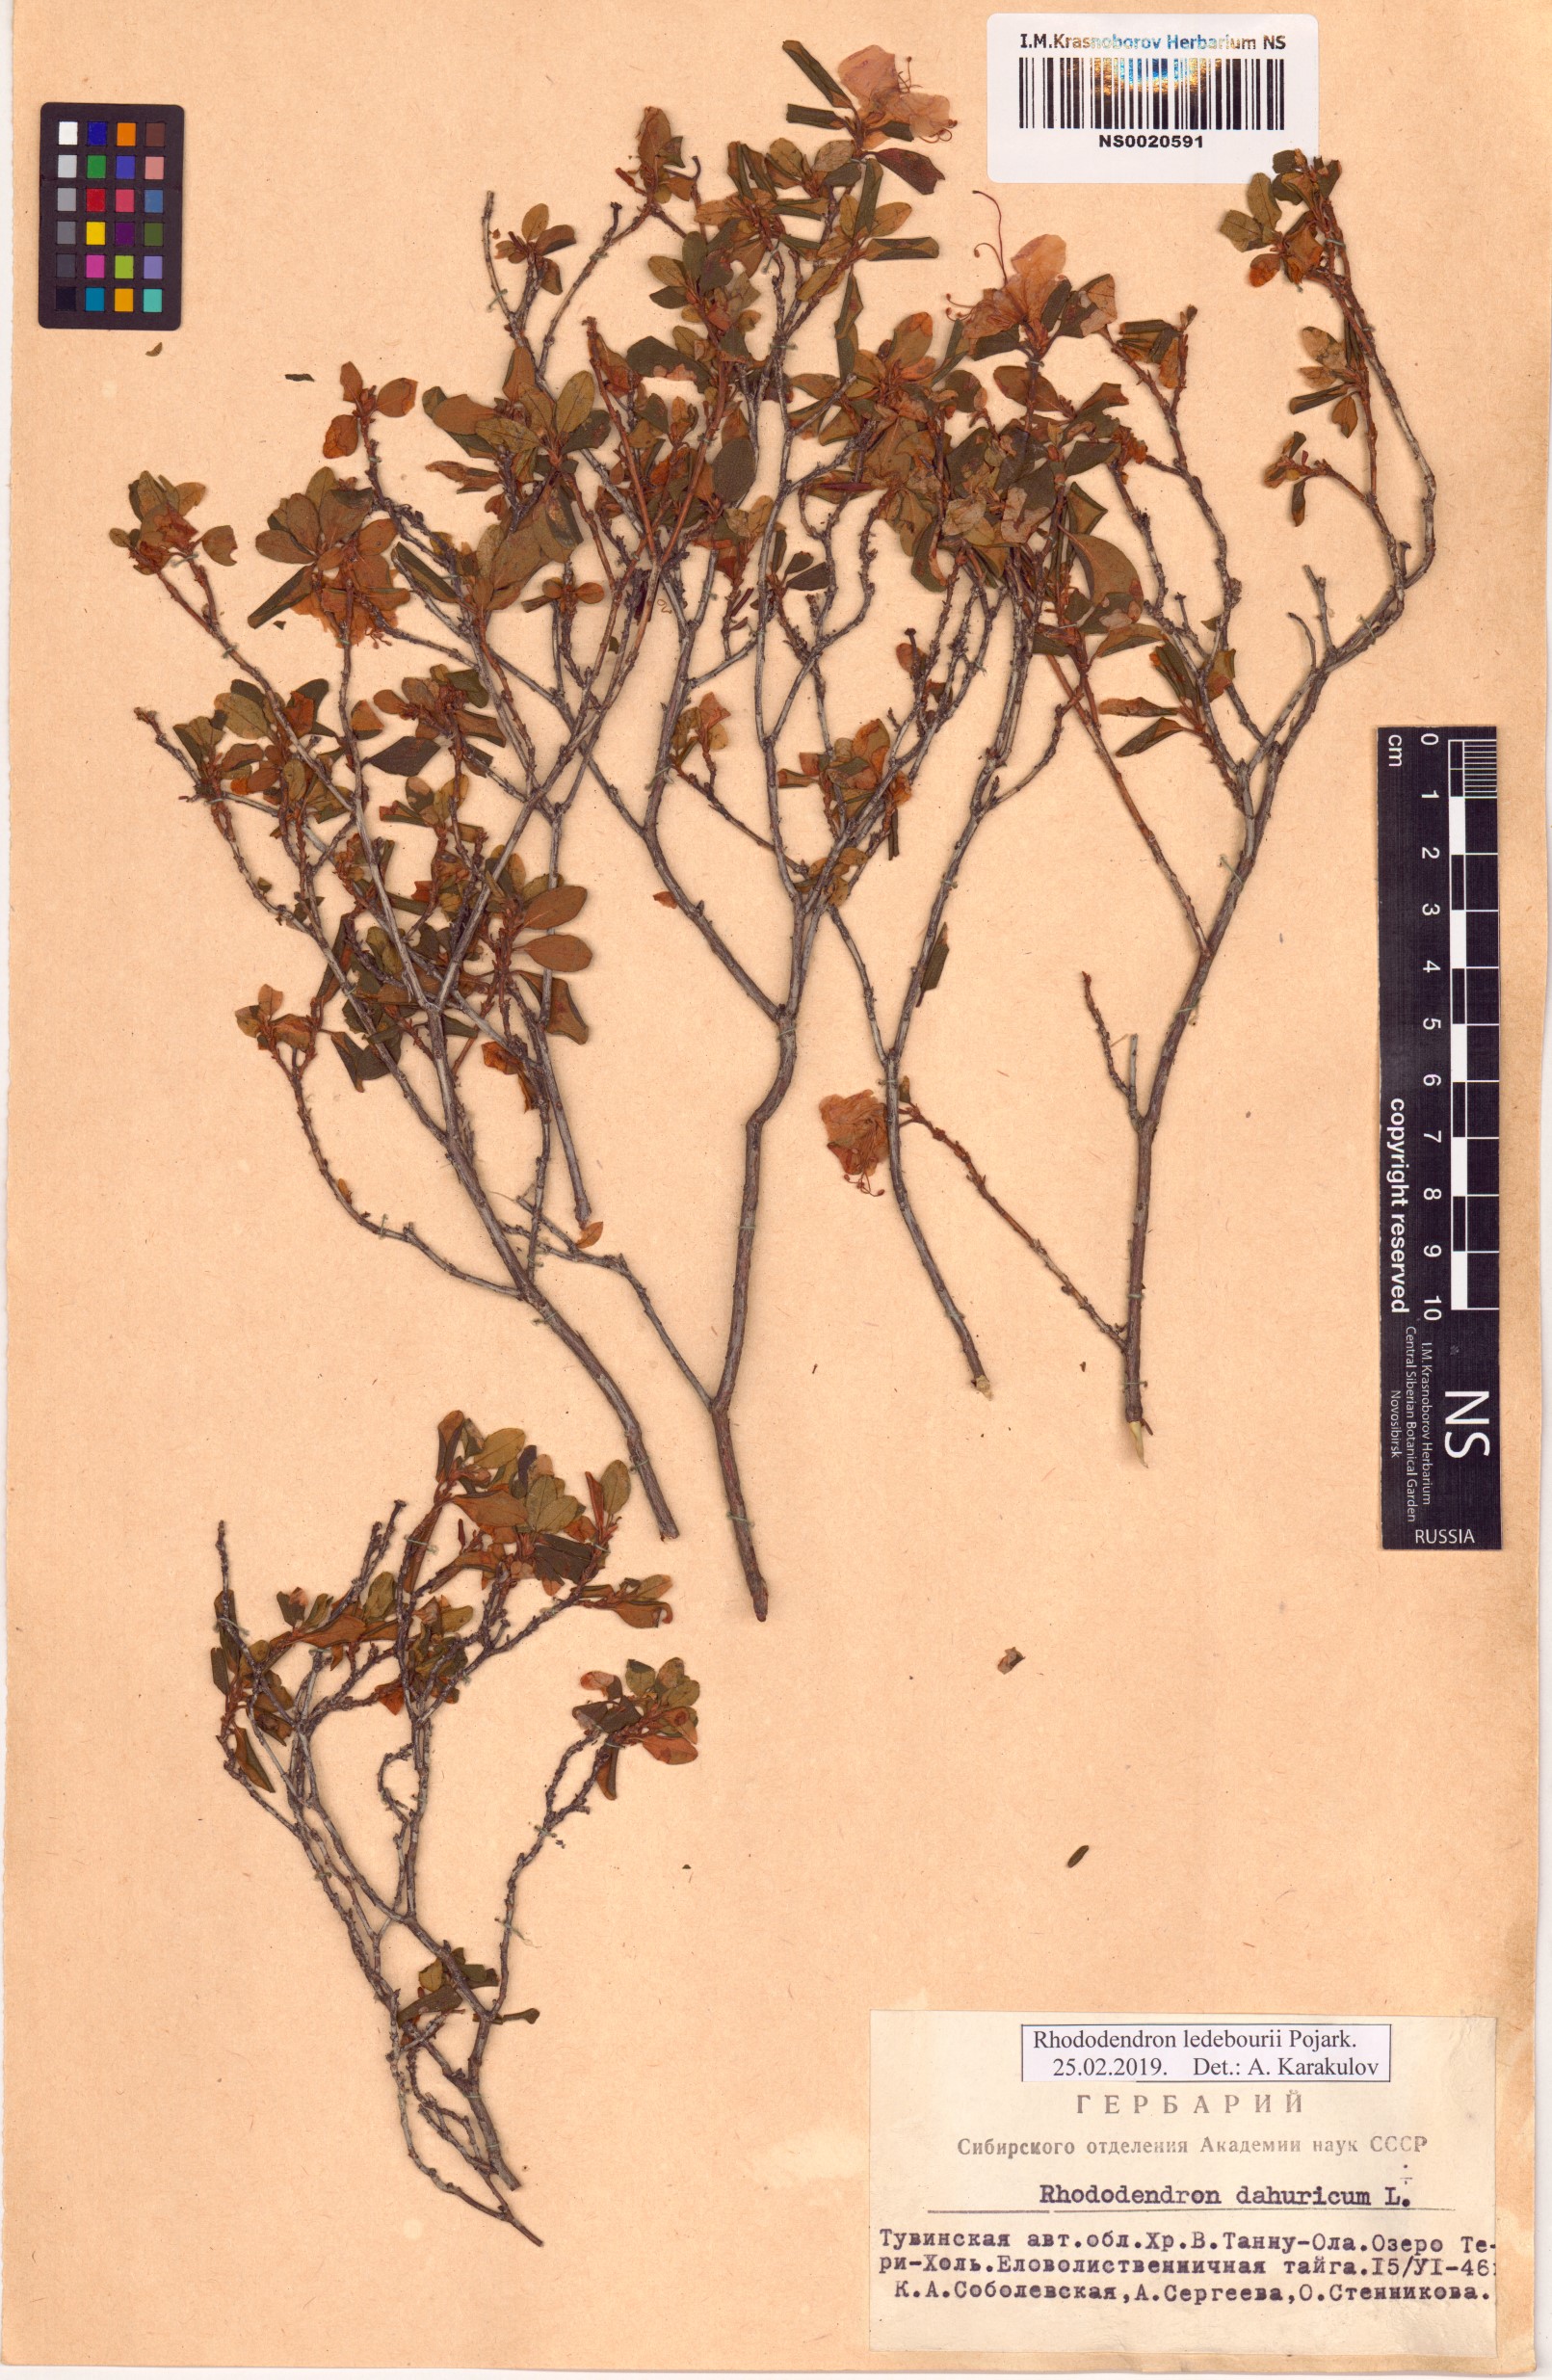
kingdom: Plantae
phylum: Tracheophyta
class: Magnoliopsida
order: Ericales
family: Ericaceae
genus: Rhododendron
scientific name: Rhododendron dauricum
